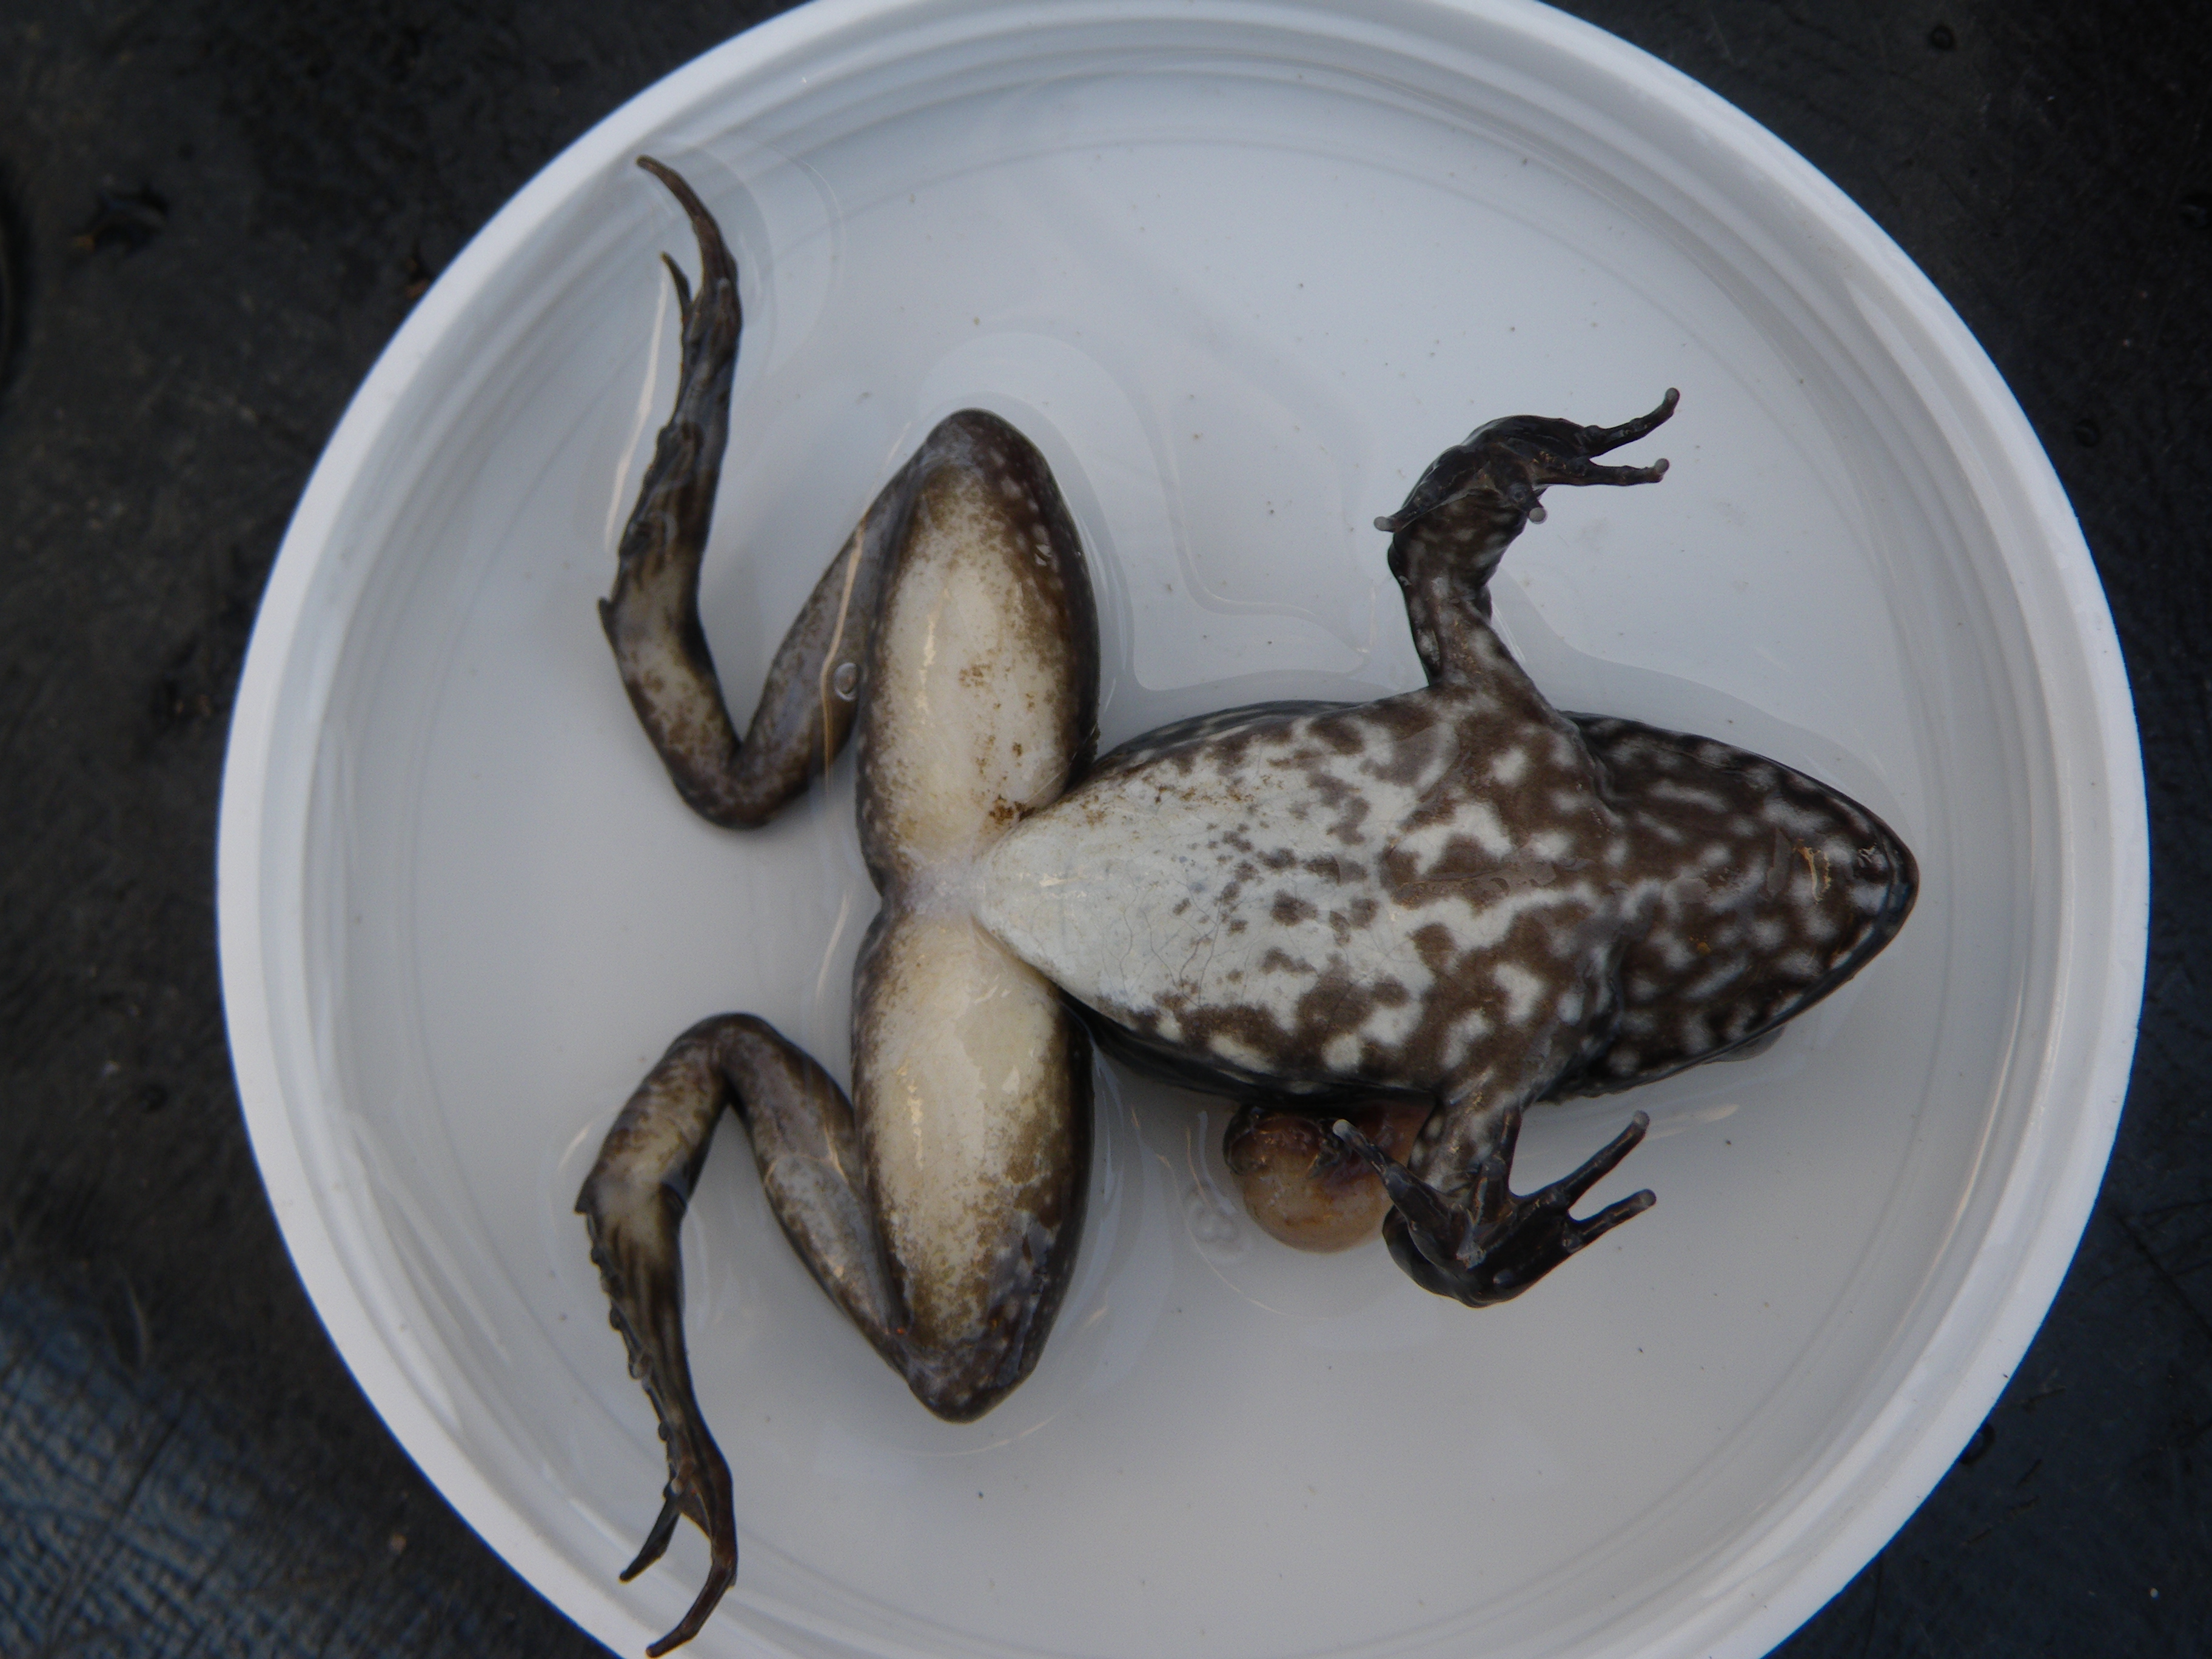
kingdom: Animalia
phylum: Chordata
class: Amphibia
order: Anura
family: Pyxicephalidae
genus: Amietia
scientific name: Amietia
